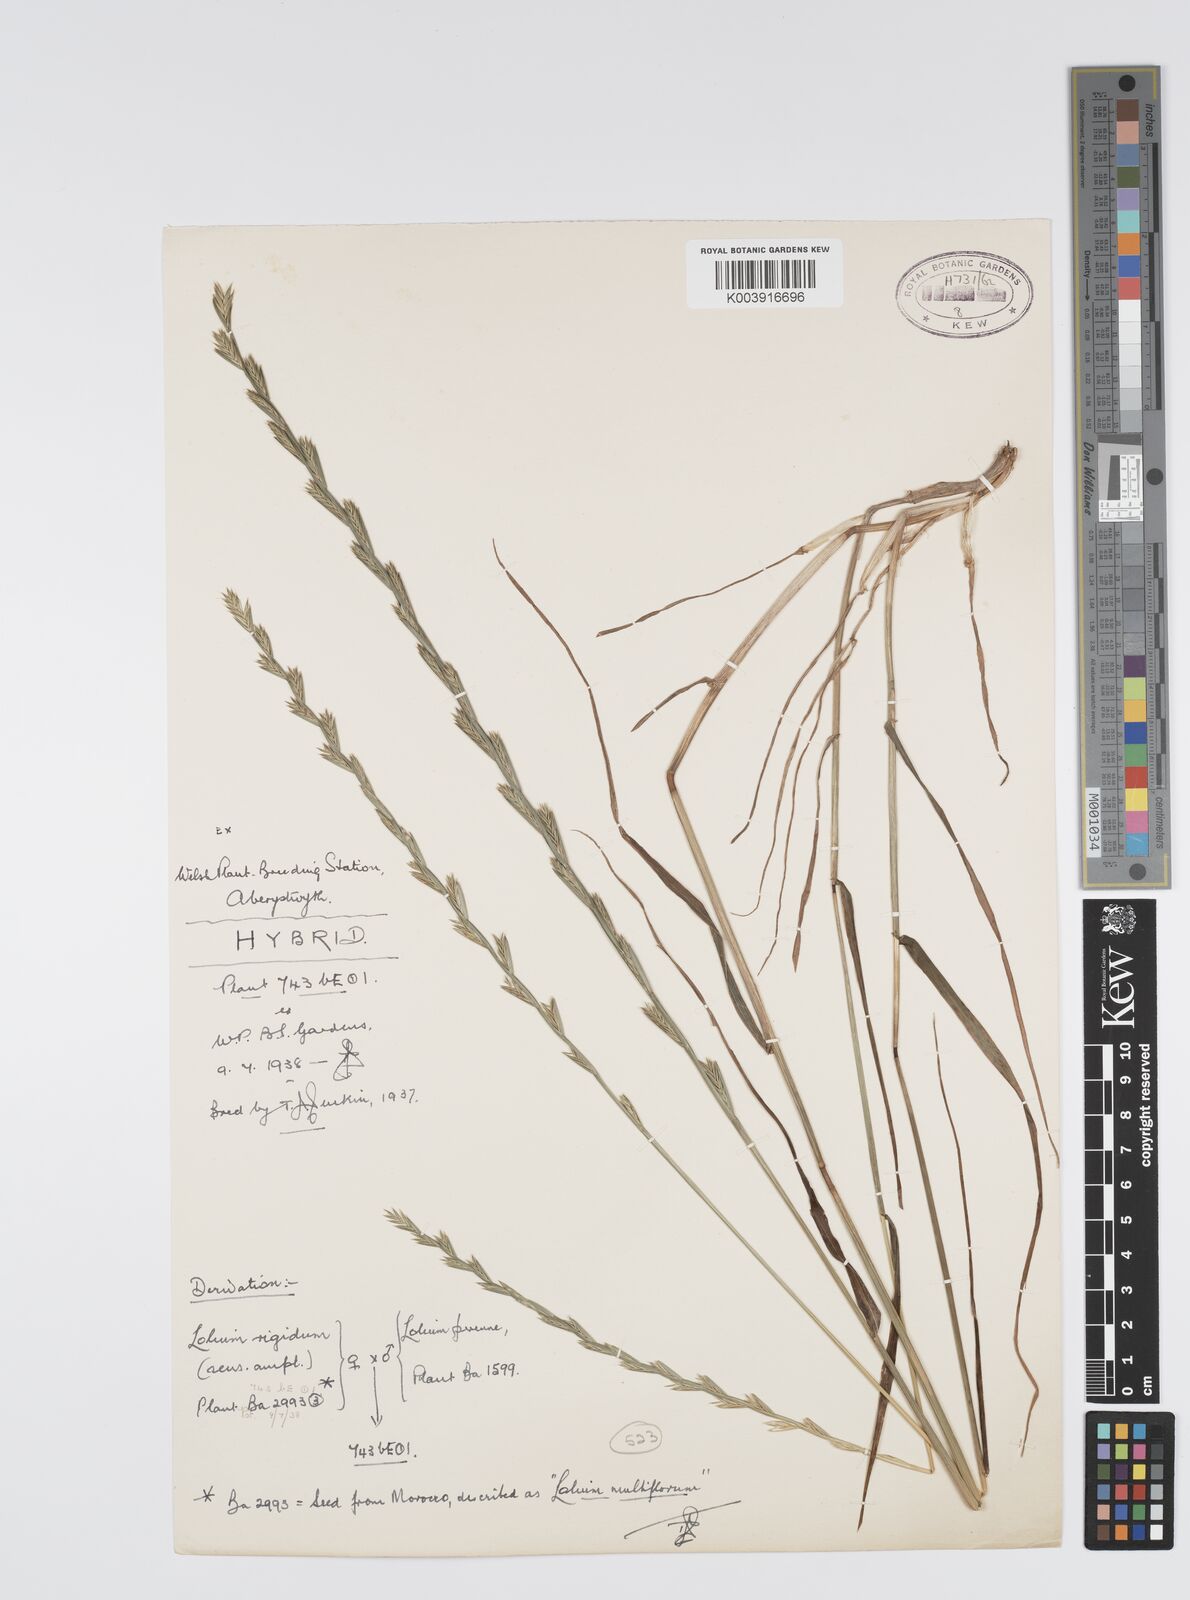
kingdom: Plantae
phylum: Tracheophyta
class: Liliopsida
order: Poales
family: Poaceae
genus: Lolium
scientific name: Lolium perenne
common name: Perennial ryegrass
